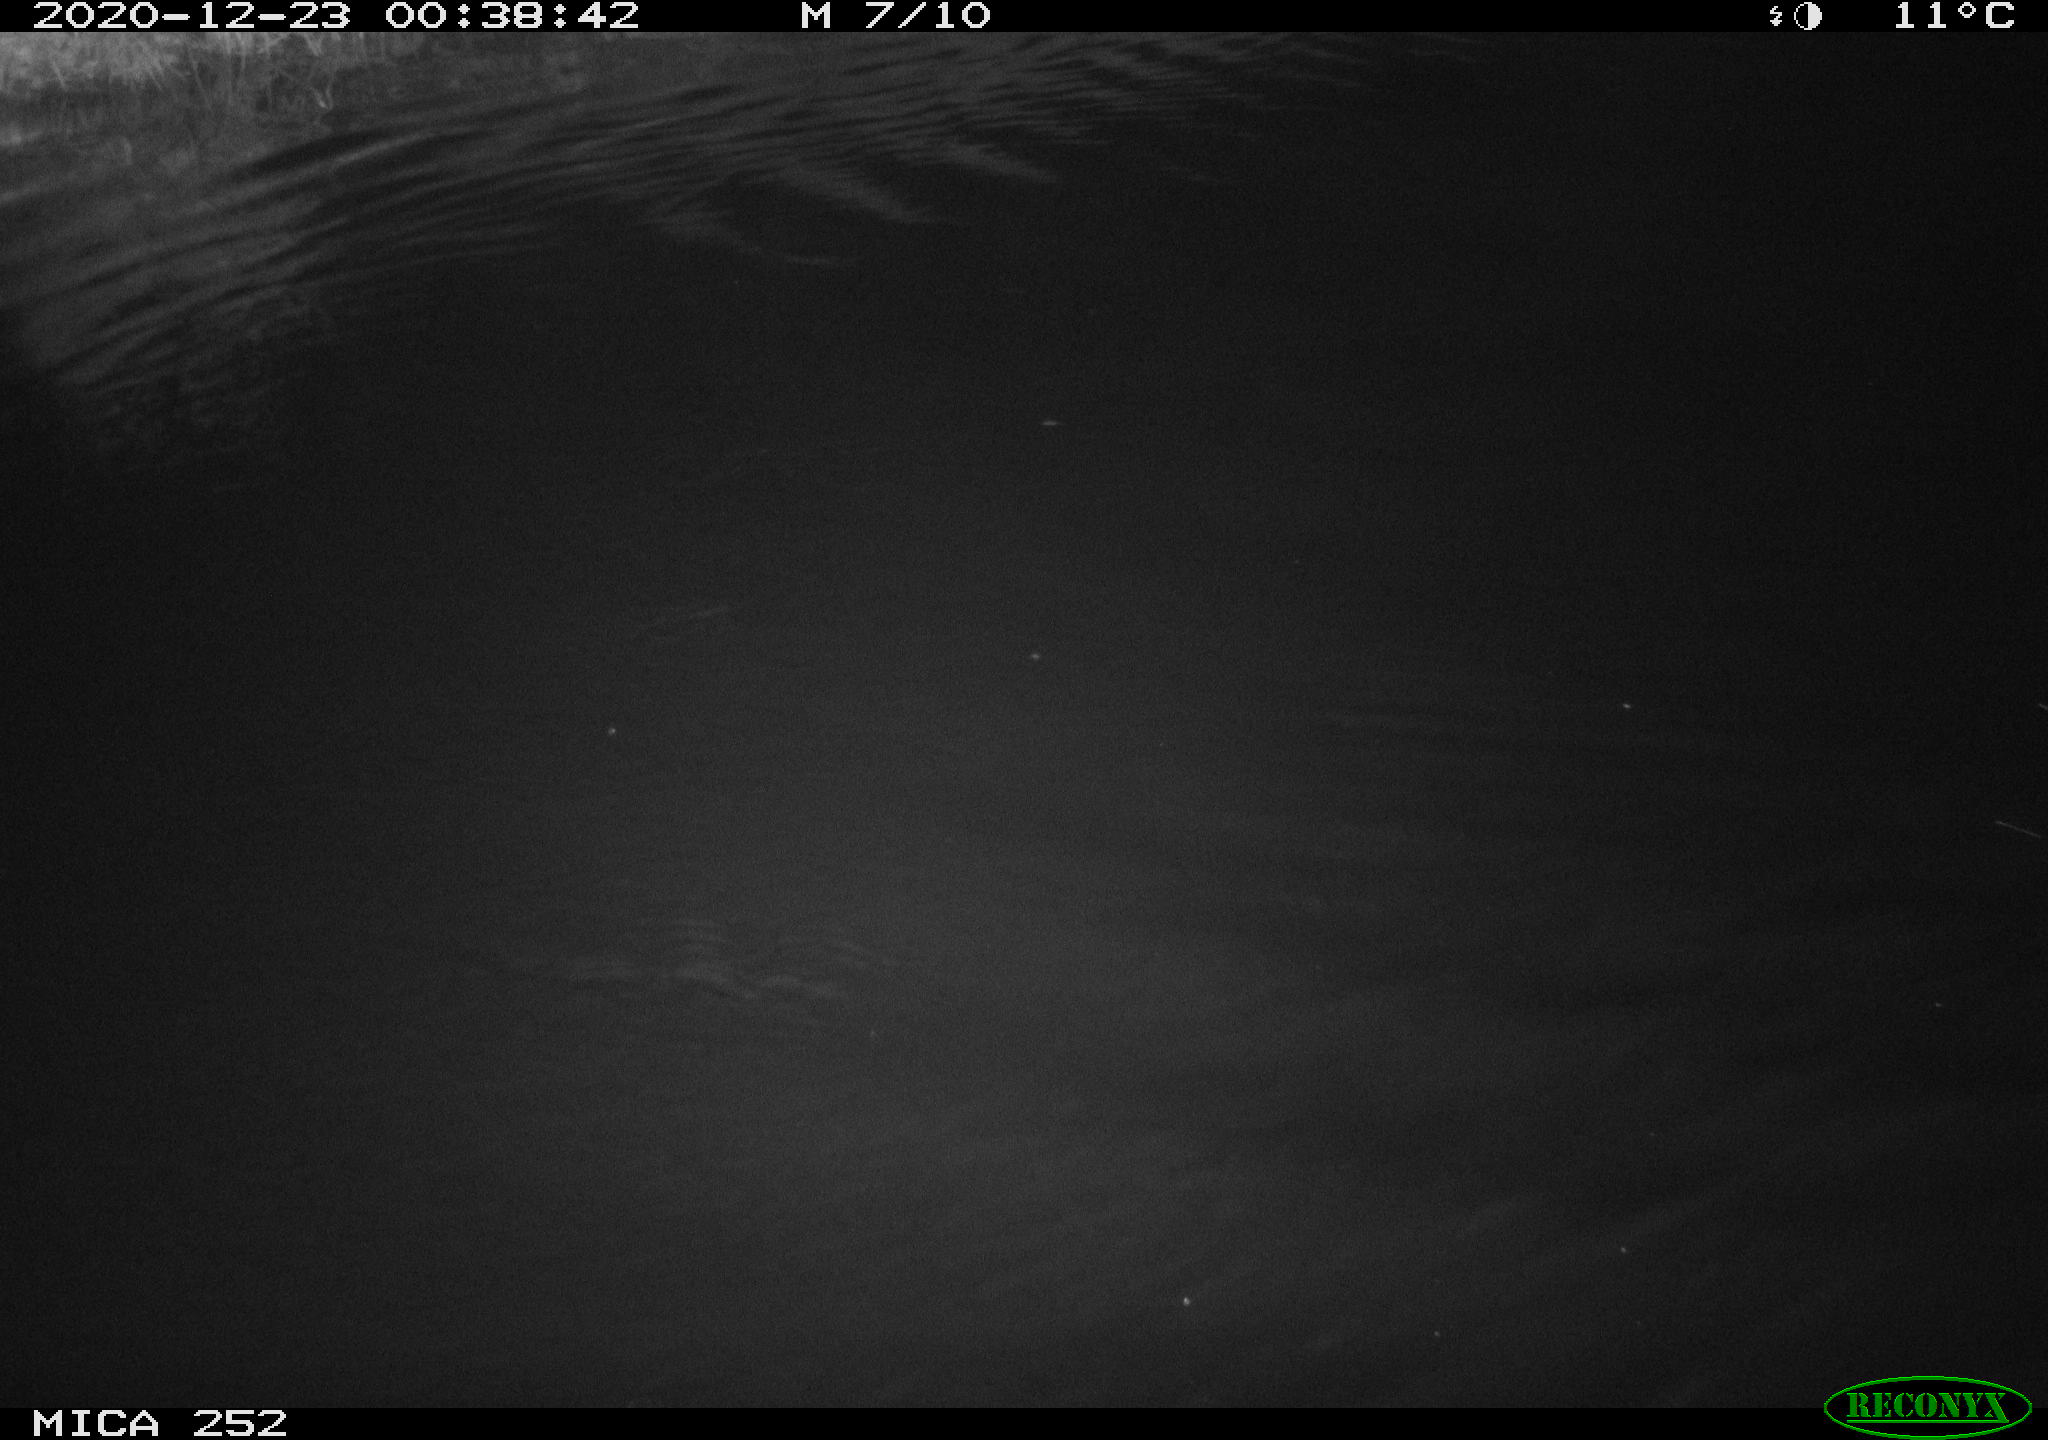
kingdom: Animalia
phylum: Chordata
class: Mammalia
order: Rodentia
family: Castoridae
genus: Castor
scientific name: Castor fiber
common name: Eurasian beaver
